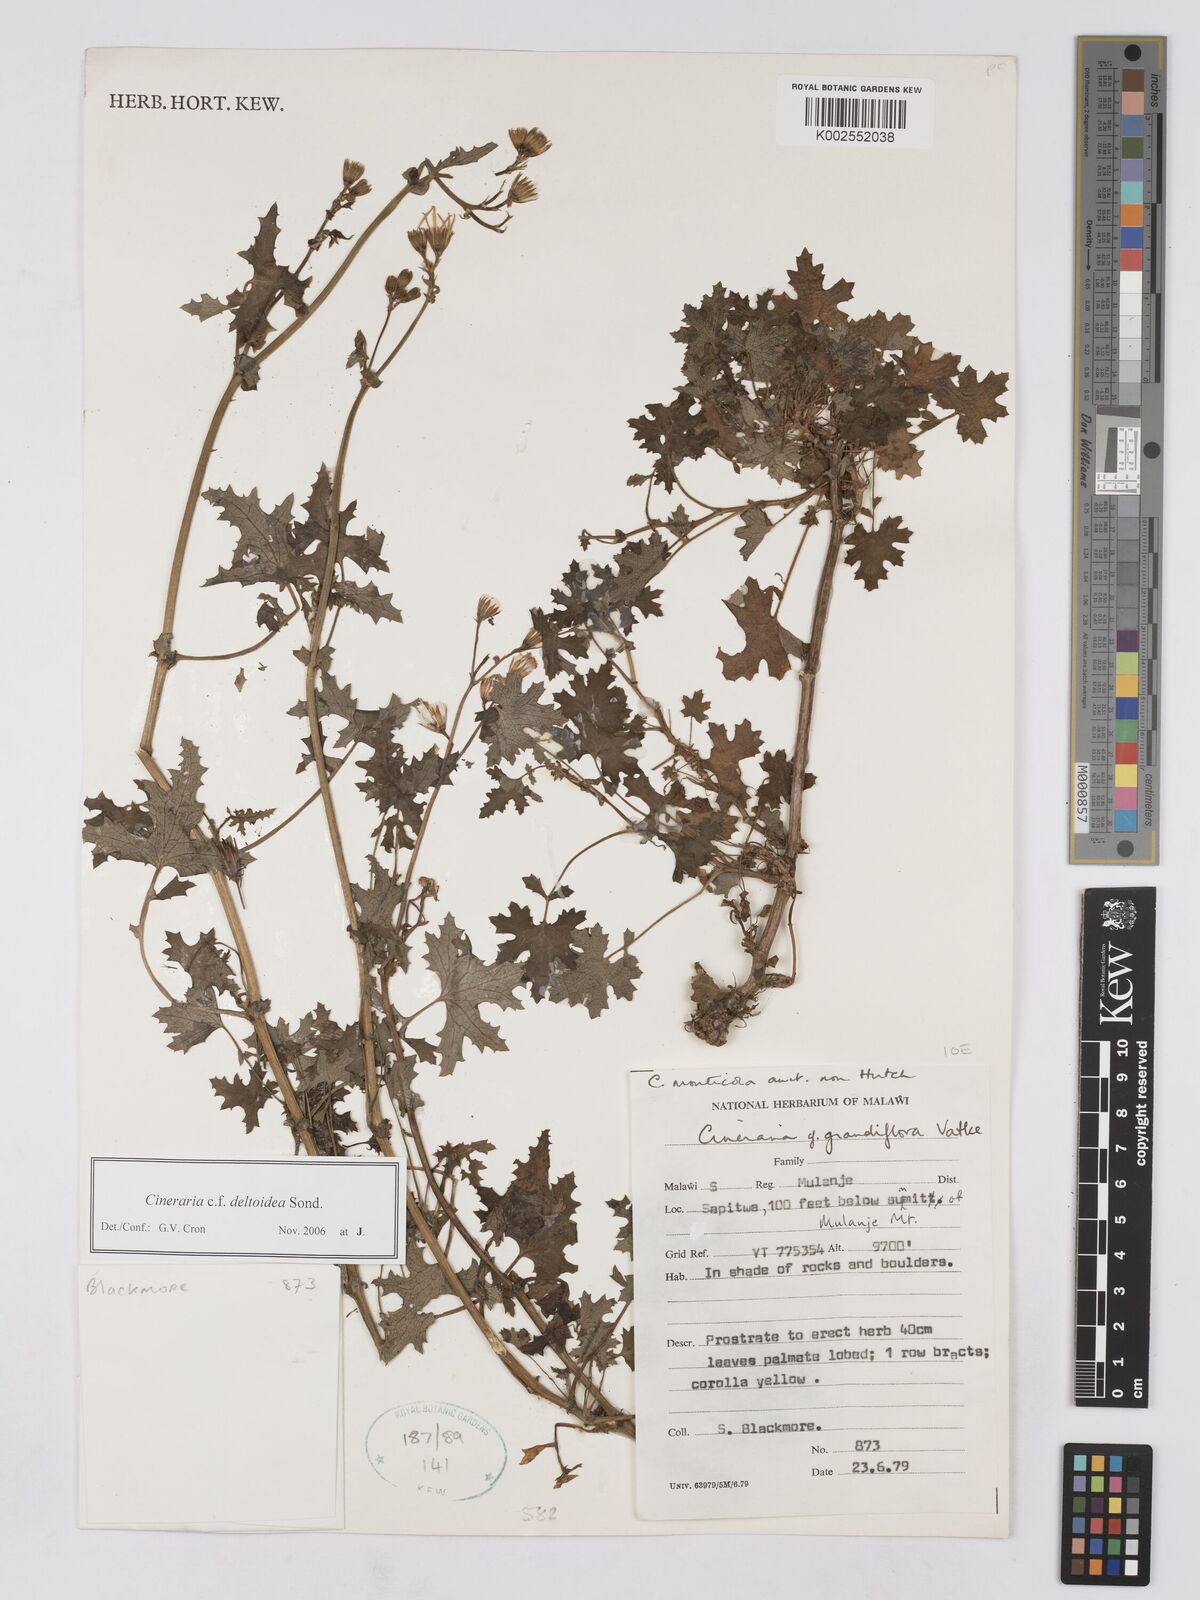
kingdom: Plantae
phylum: Tracheophyta
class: Magnoliopsida
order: Asterales
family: Asteraceae
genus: Cineraria
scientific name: Cineraria deltoidea
